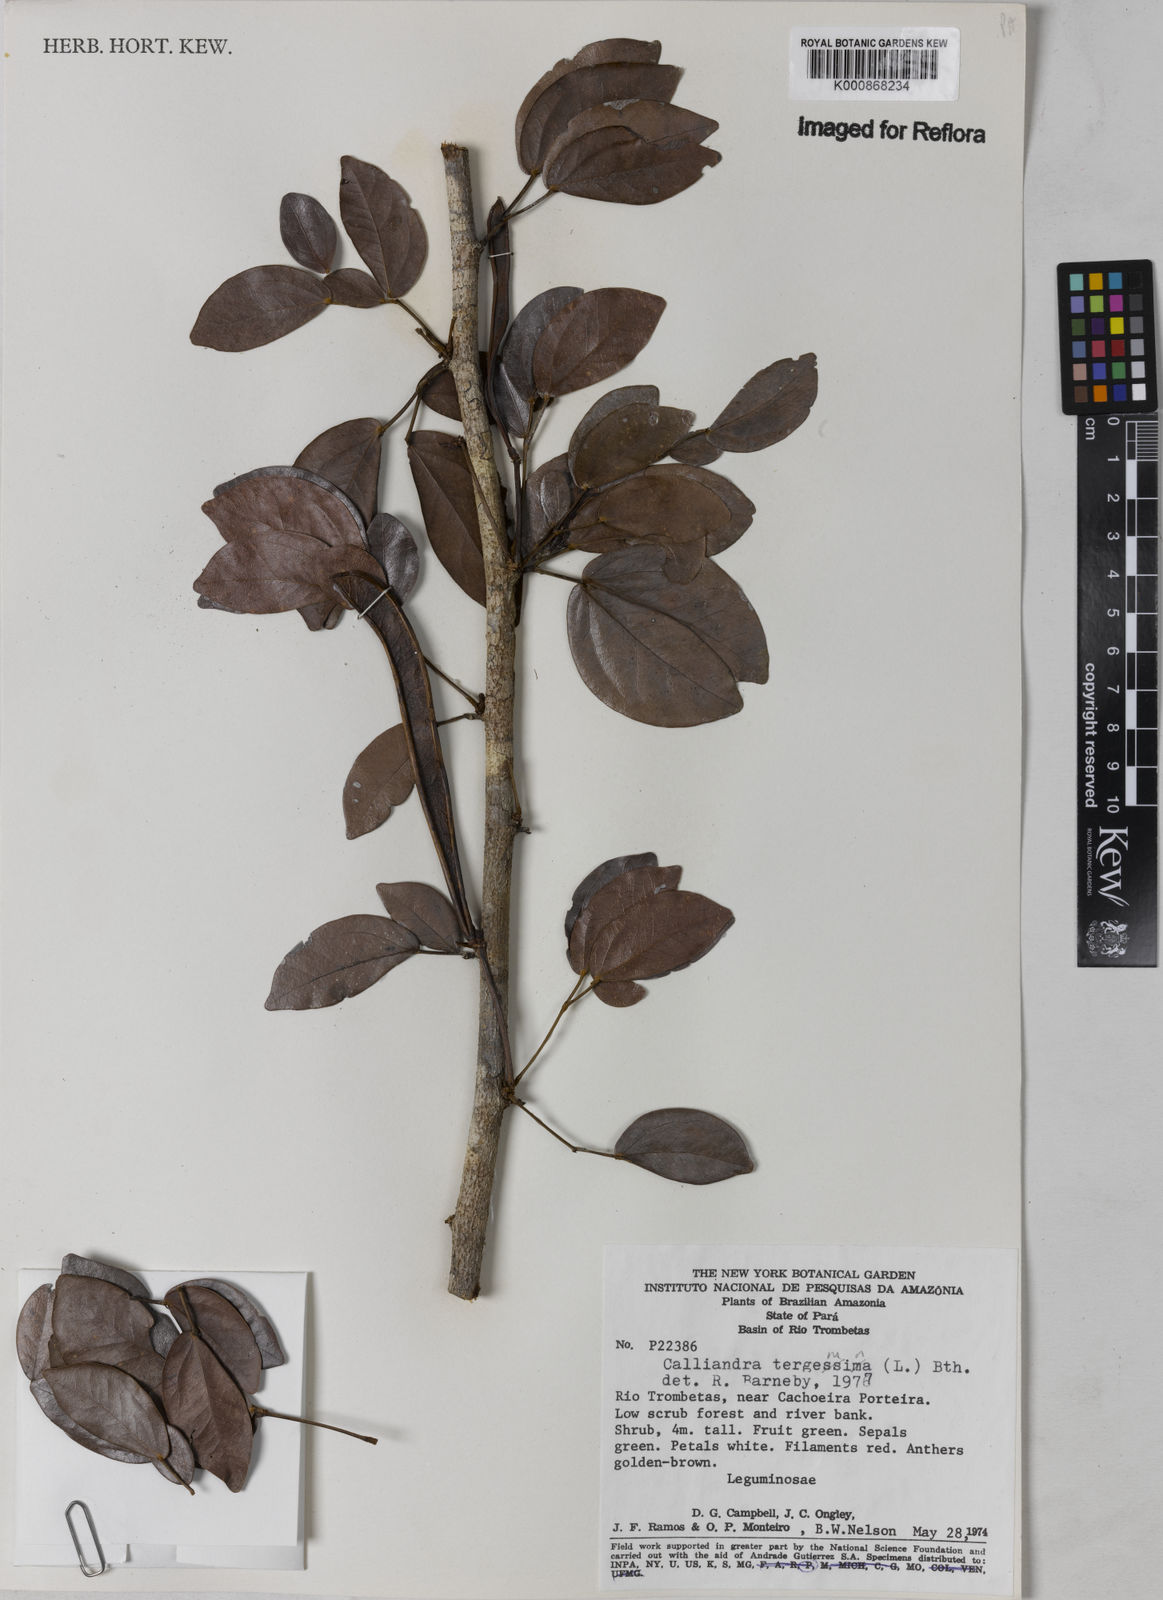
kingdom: Plantae
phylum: Tracheophyta
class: Magnoliopsida
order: Fabales
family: Fabaceae
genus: Calliandra
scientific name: Calliandra tergemina
